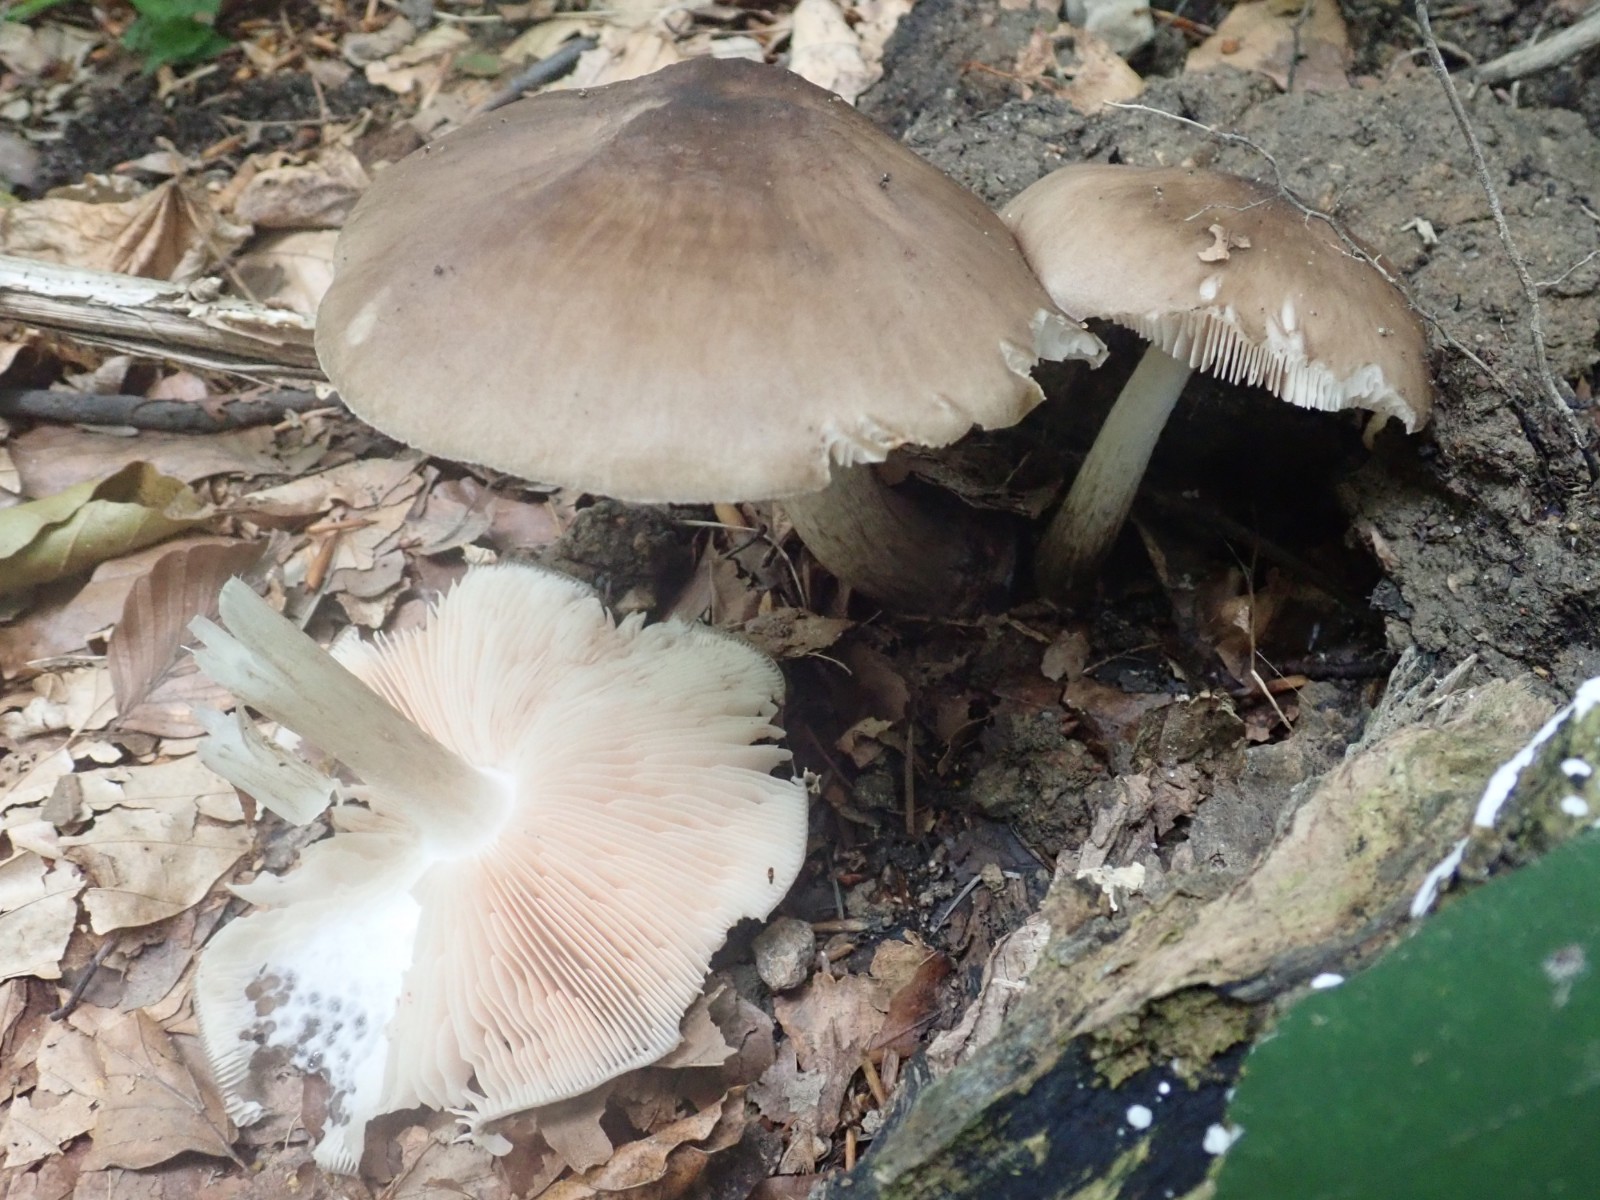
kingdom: Fungi
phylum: Basidiomycota
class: Agaricomycetes
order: Agaricales
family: Pluteaceae
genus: Pluteus
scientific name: Pluteus cervinus
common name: sodfarvet skærmhat
